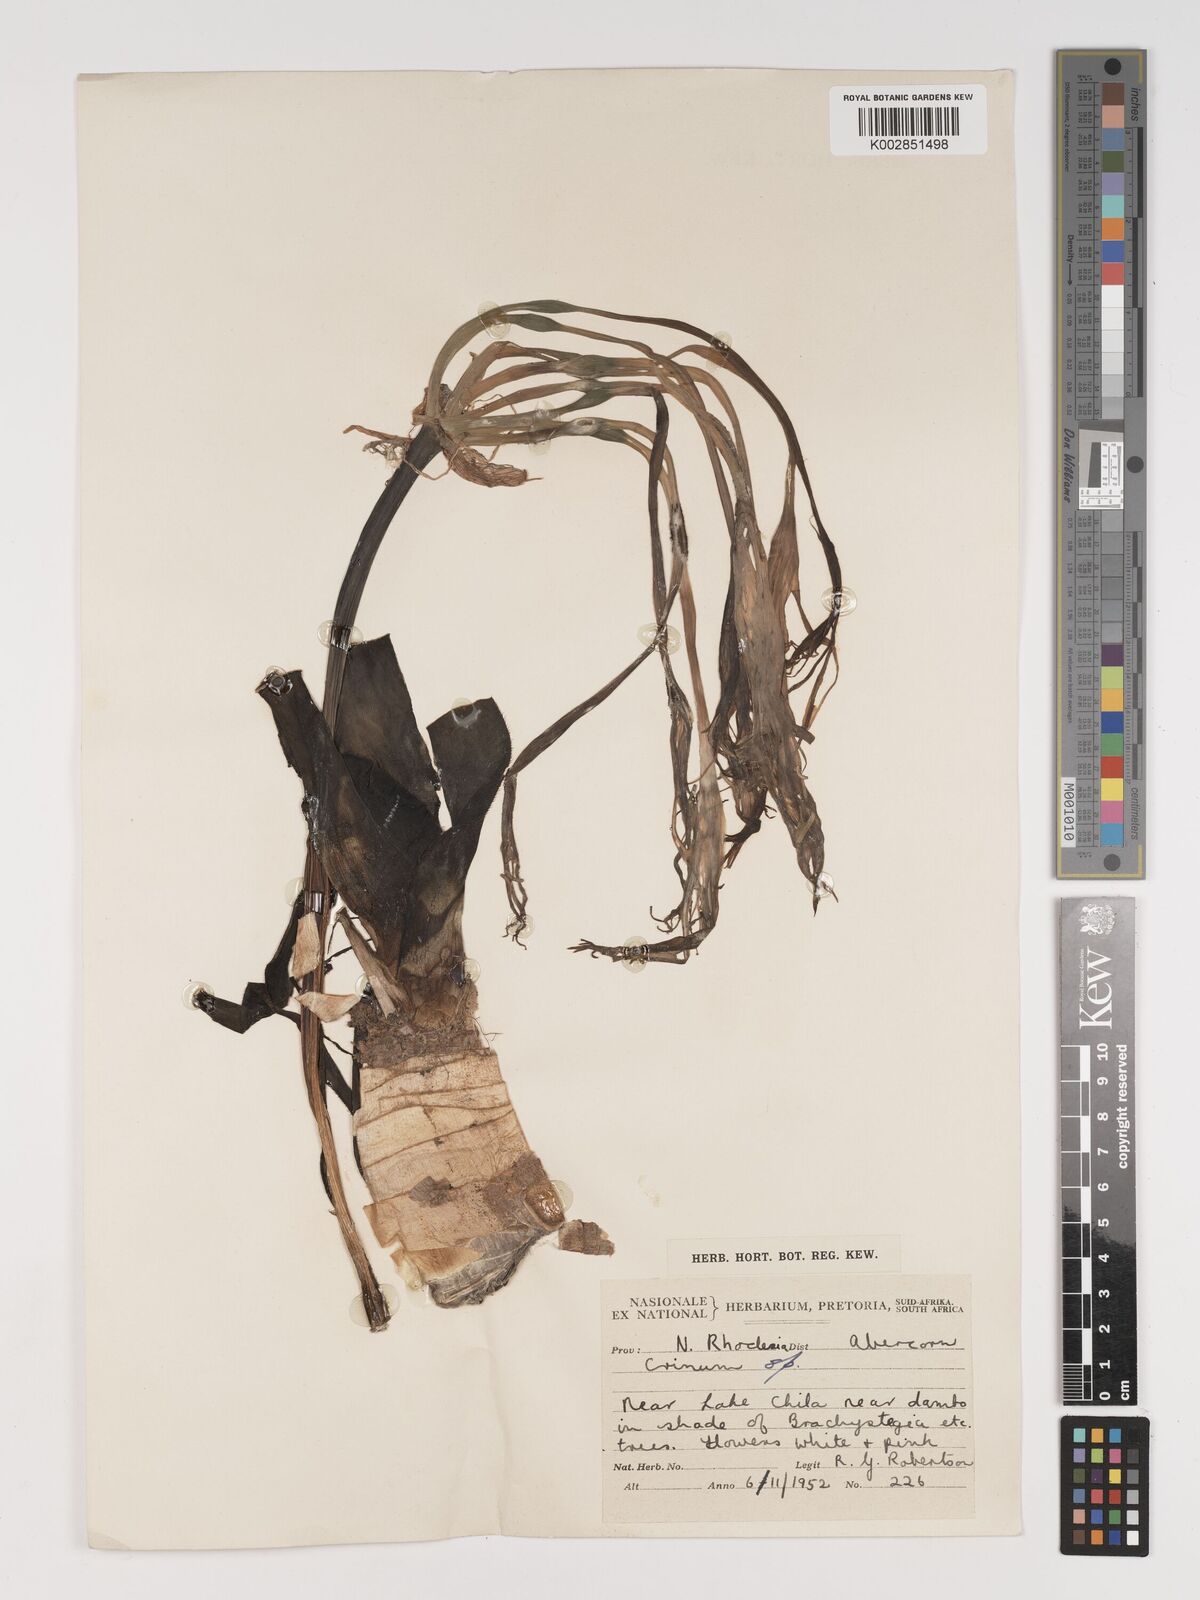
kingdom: Plantae
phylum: Tracheophyta
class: Liliopsida
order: Asparagales
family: Amaryllidaceae
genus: Crinum
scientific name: Crinum stuhlmannii
